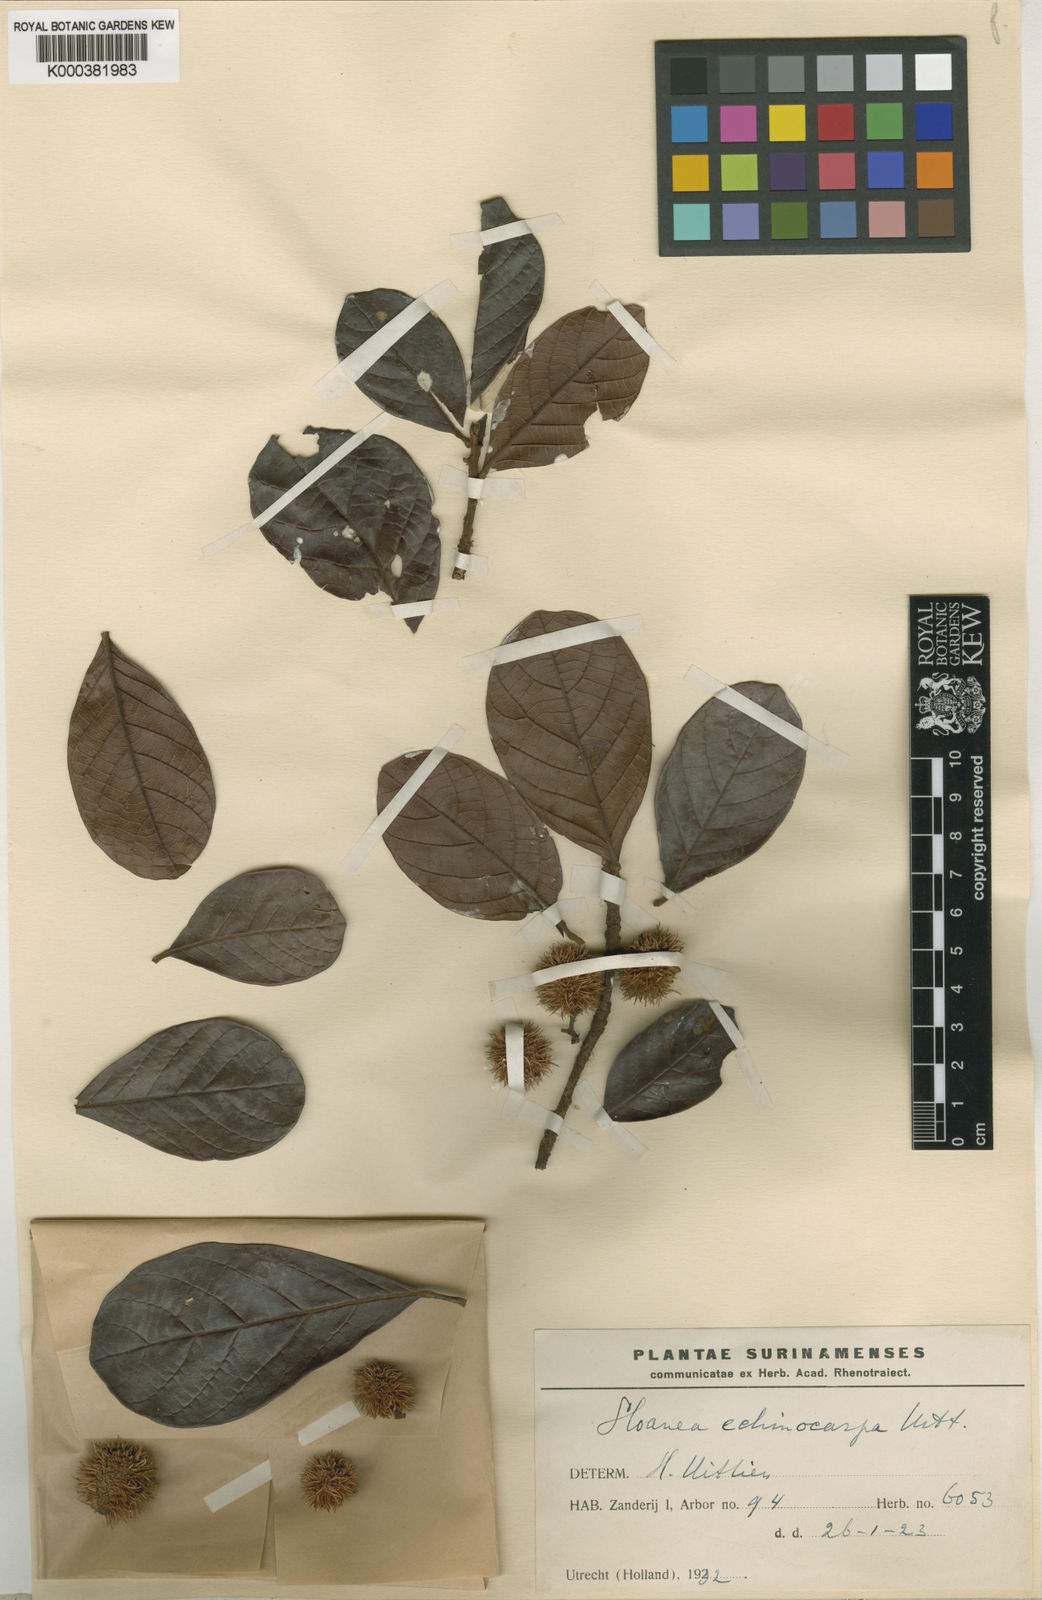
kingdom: Plantae
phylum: Tracheophyta
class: Magnoliopsida
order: Oxalidales
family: Elaeocarpaceae
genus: Sloanea
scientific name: Sloanea echinocarpa
